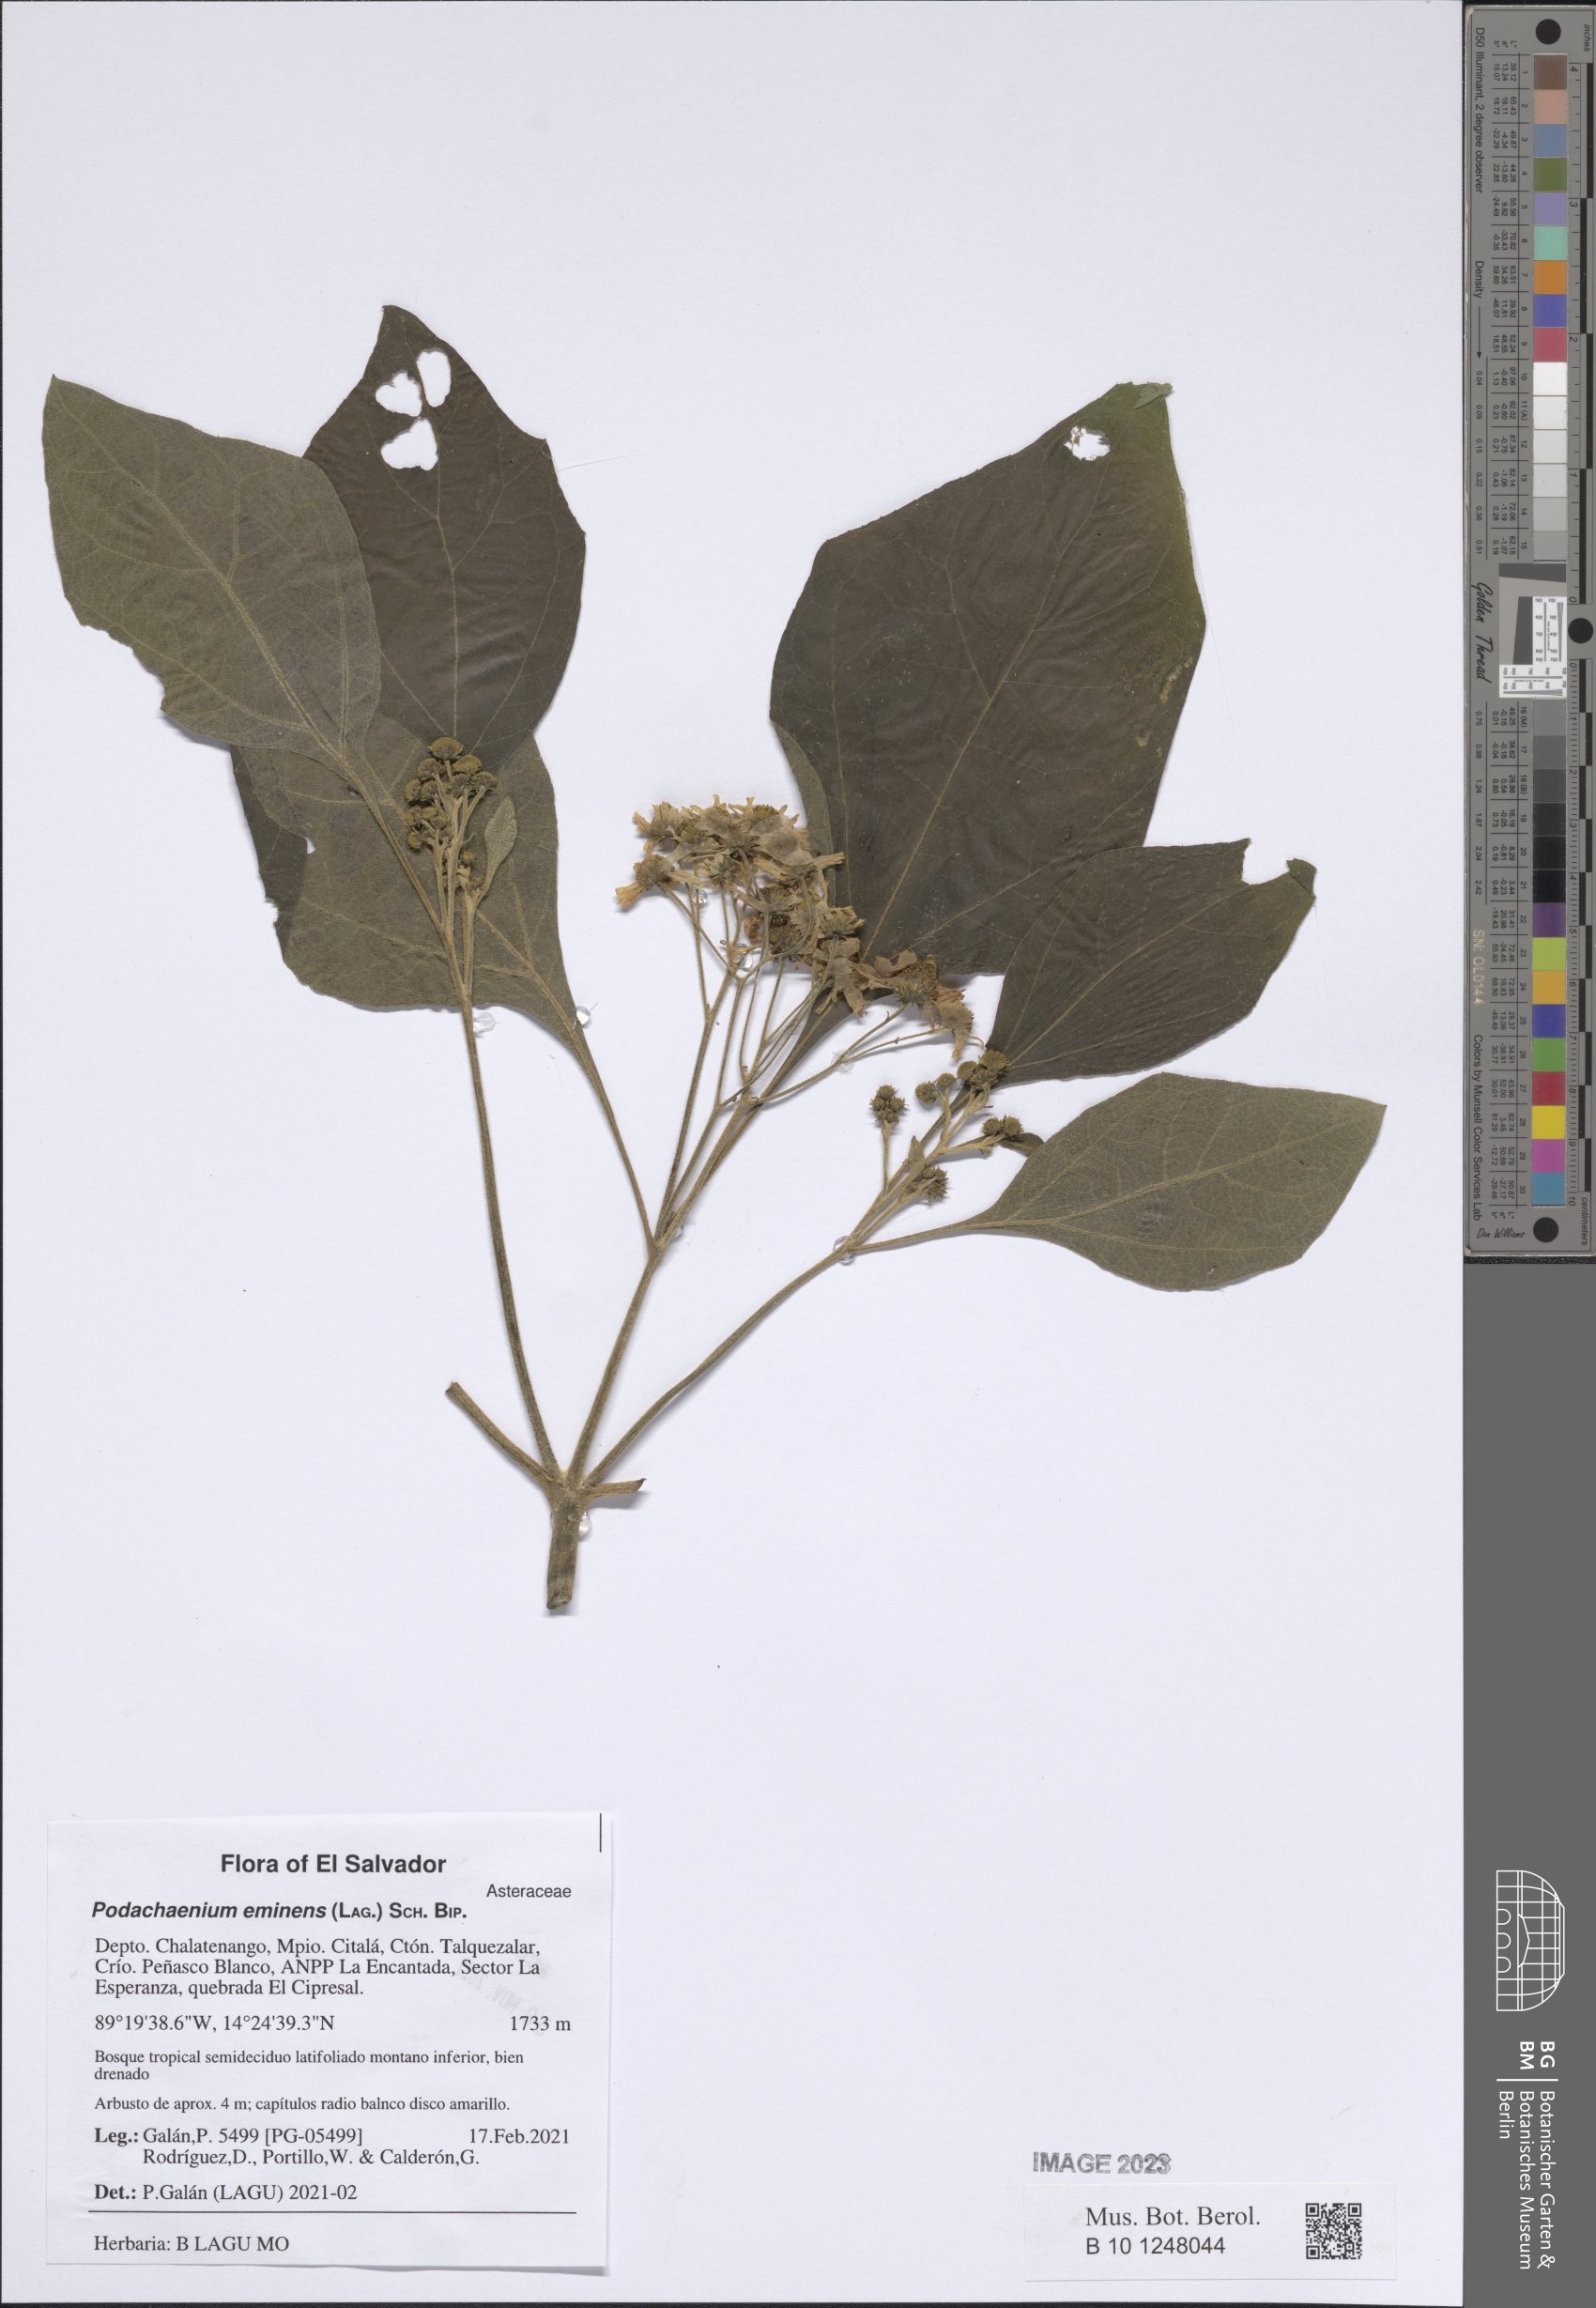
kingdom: Plantae
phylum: Tracheophyta
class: Magnoliopsida
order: Asterales
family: Asteraceae
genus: Podachaenium
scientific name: Podachaenium eminens
